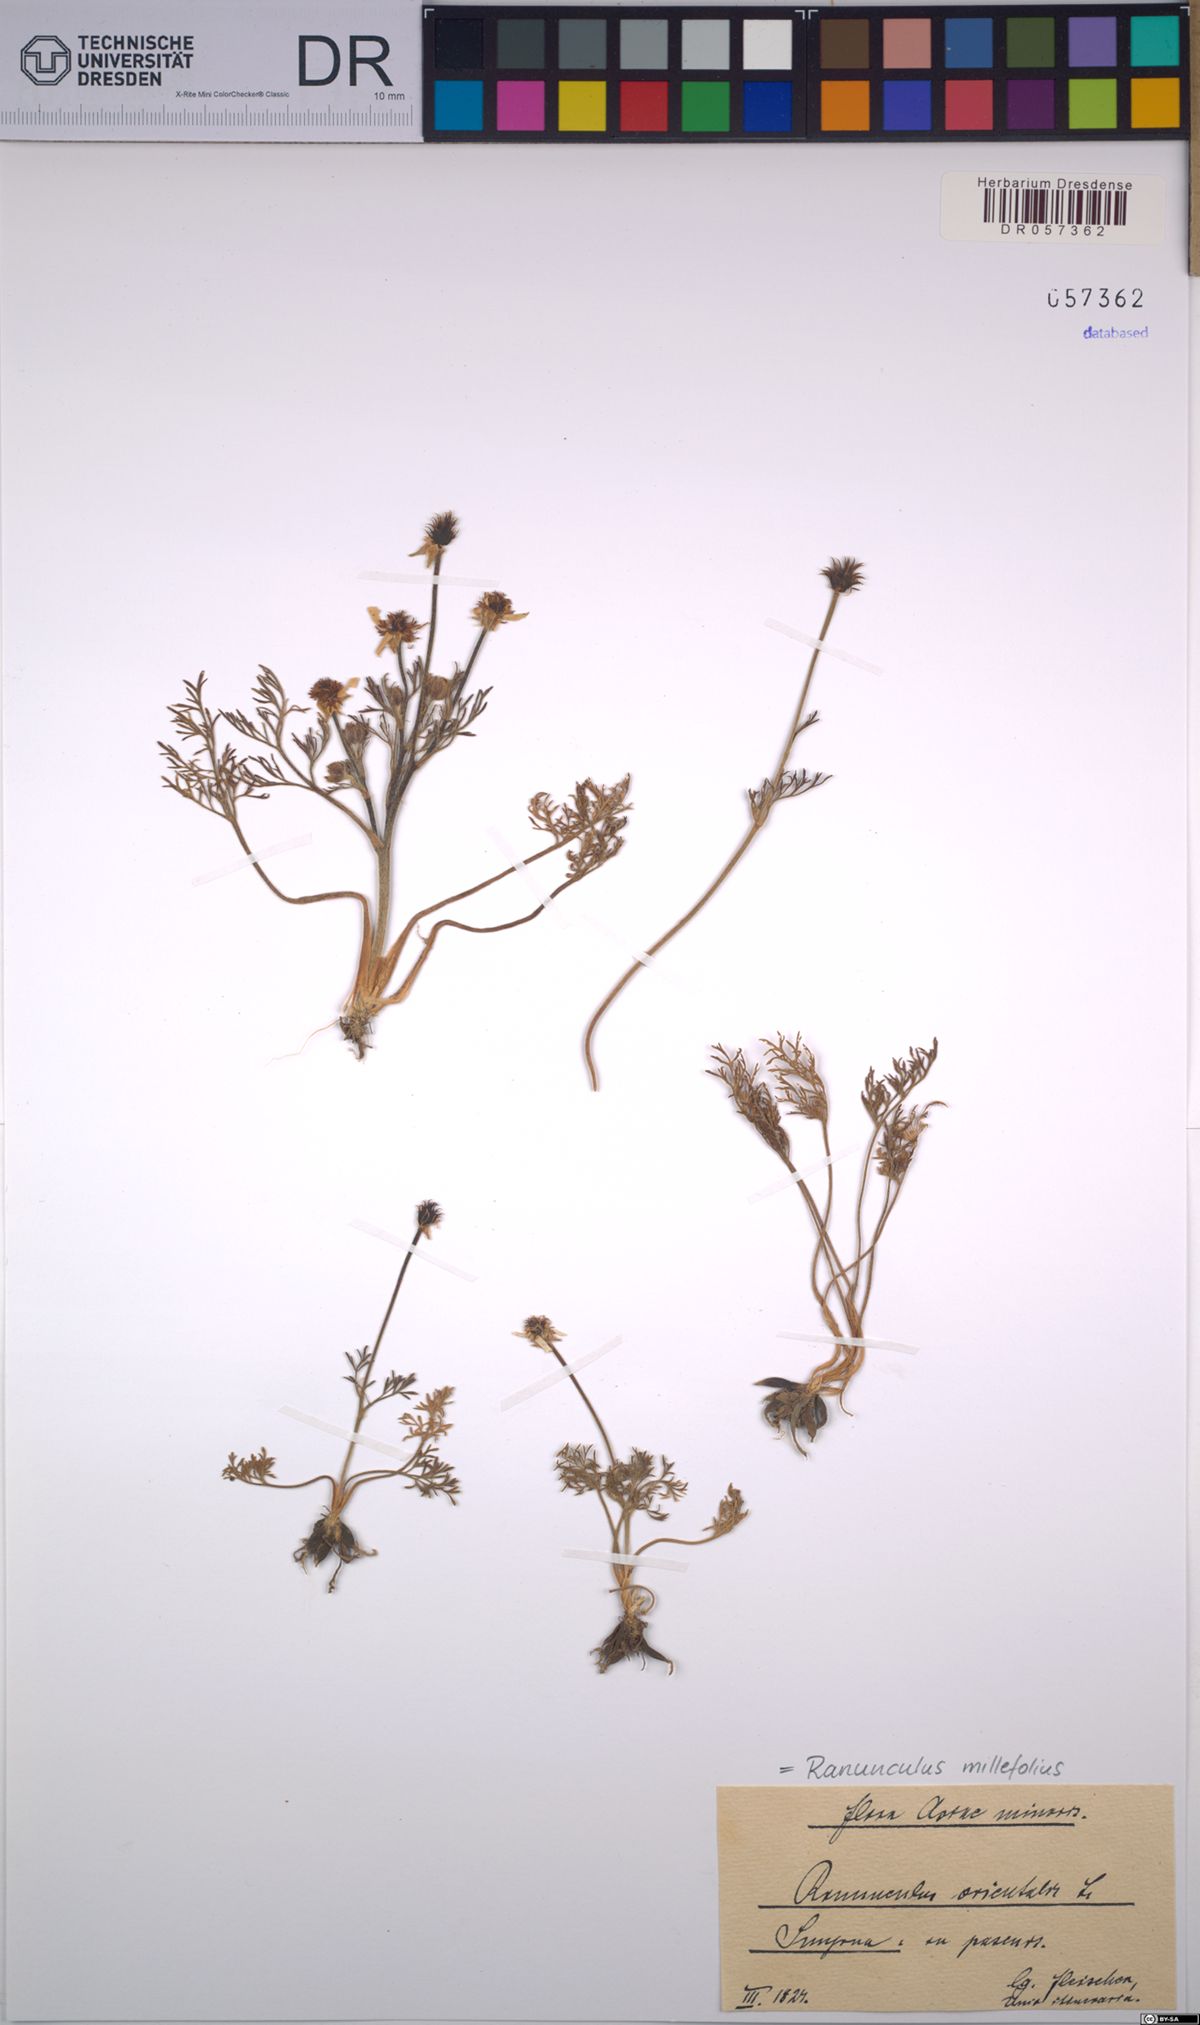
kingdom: Plantae
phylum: Tracheophyta
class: Magnoliopsida
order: Ranunculales
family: Ranunculaceae
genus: Ranunculus
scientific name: Ranunculus millefolius
